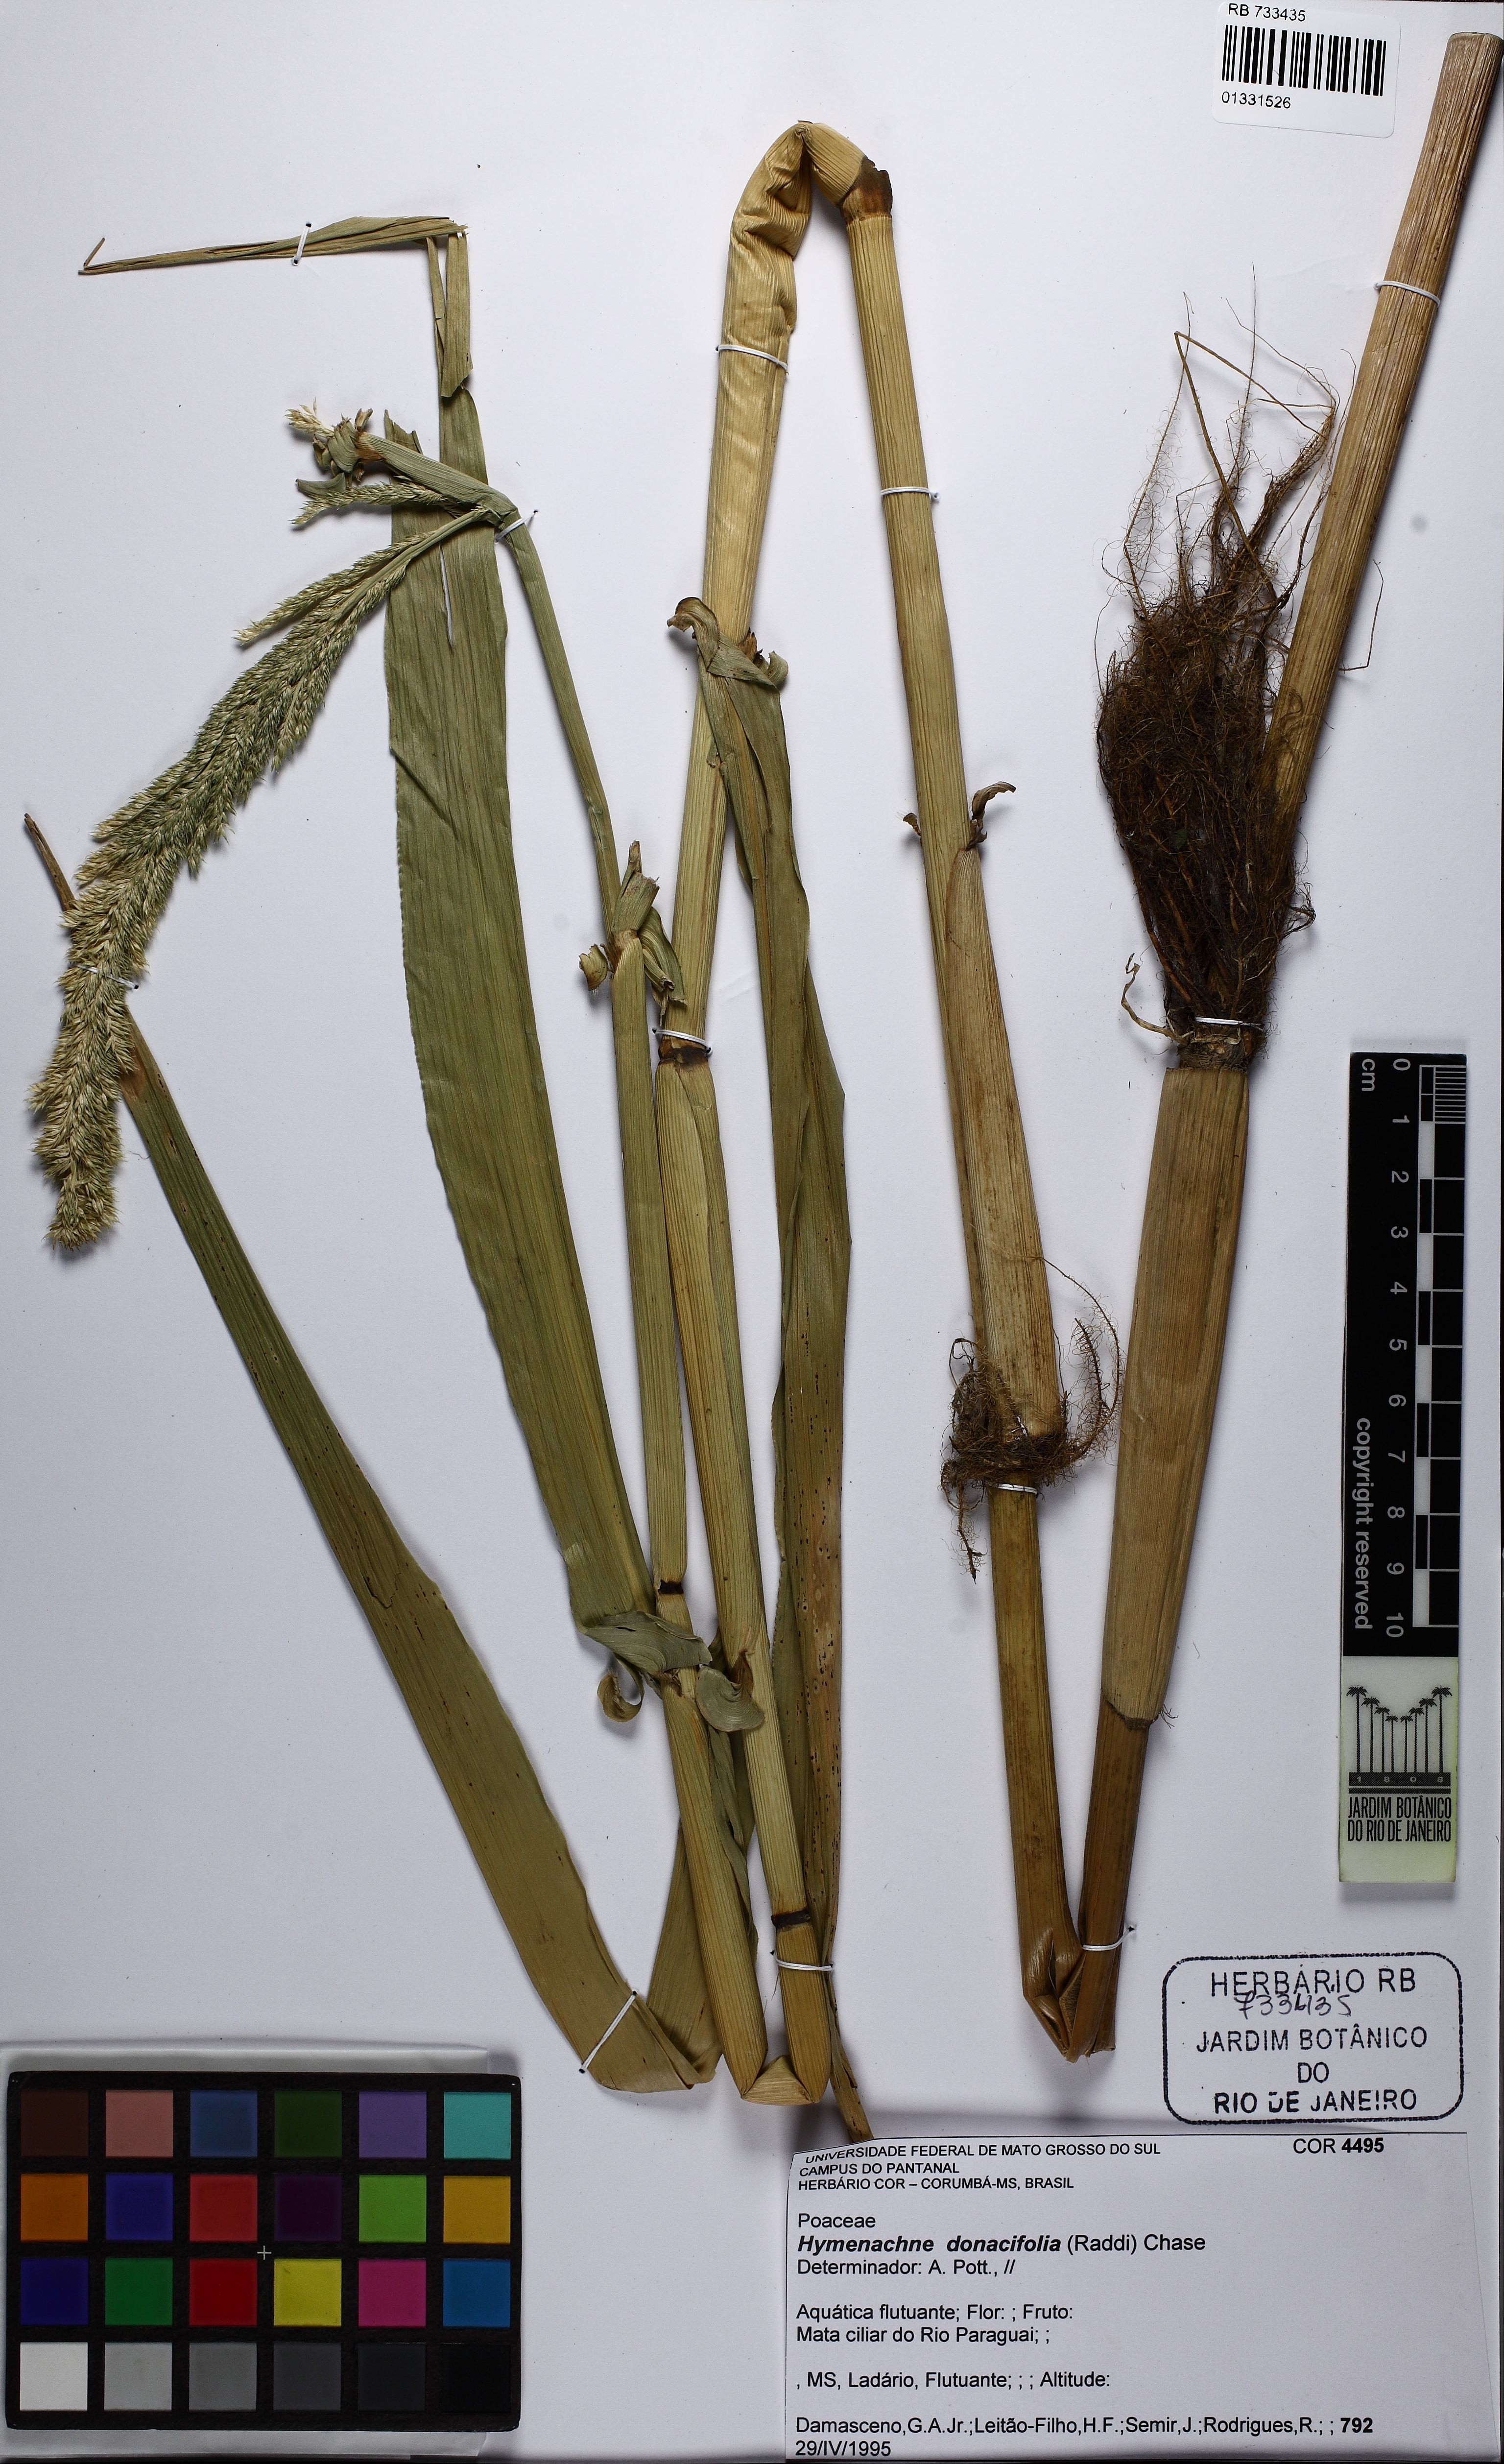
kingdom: Plantae
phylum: Tracheophyta
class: Liliopsida
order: Poales
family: Poaceae
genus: Hymenachne
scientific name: Hymenachne donacifolia
